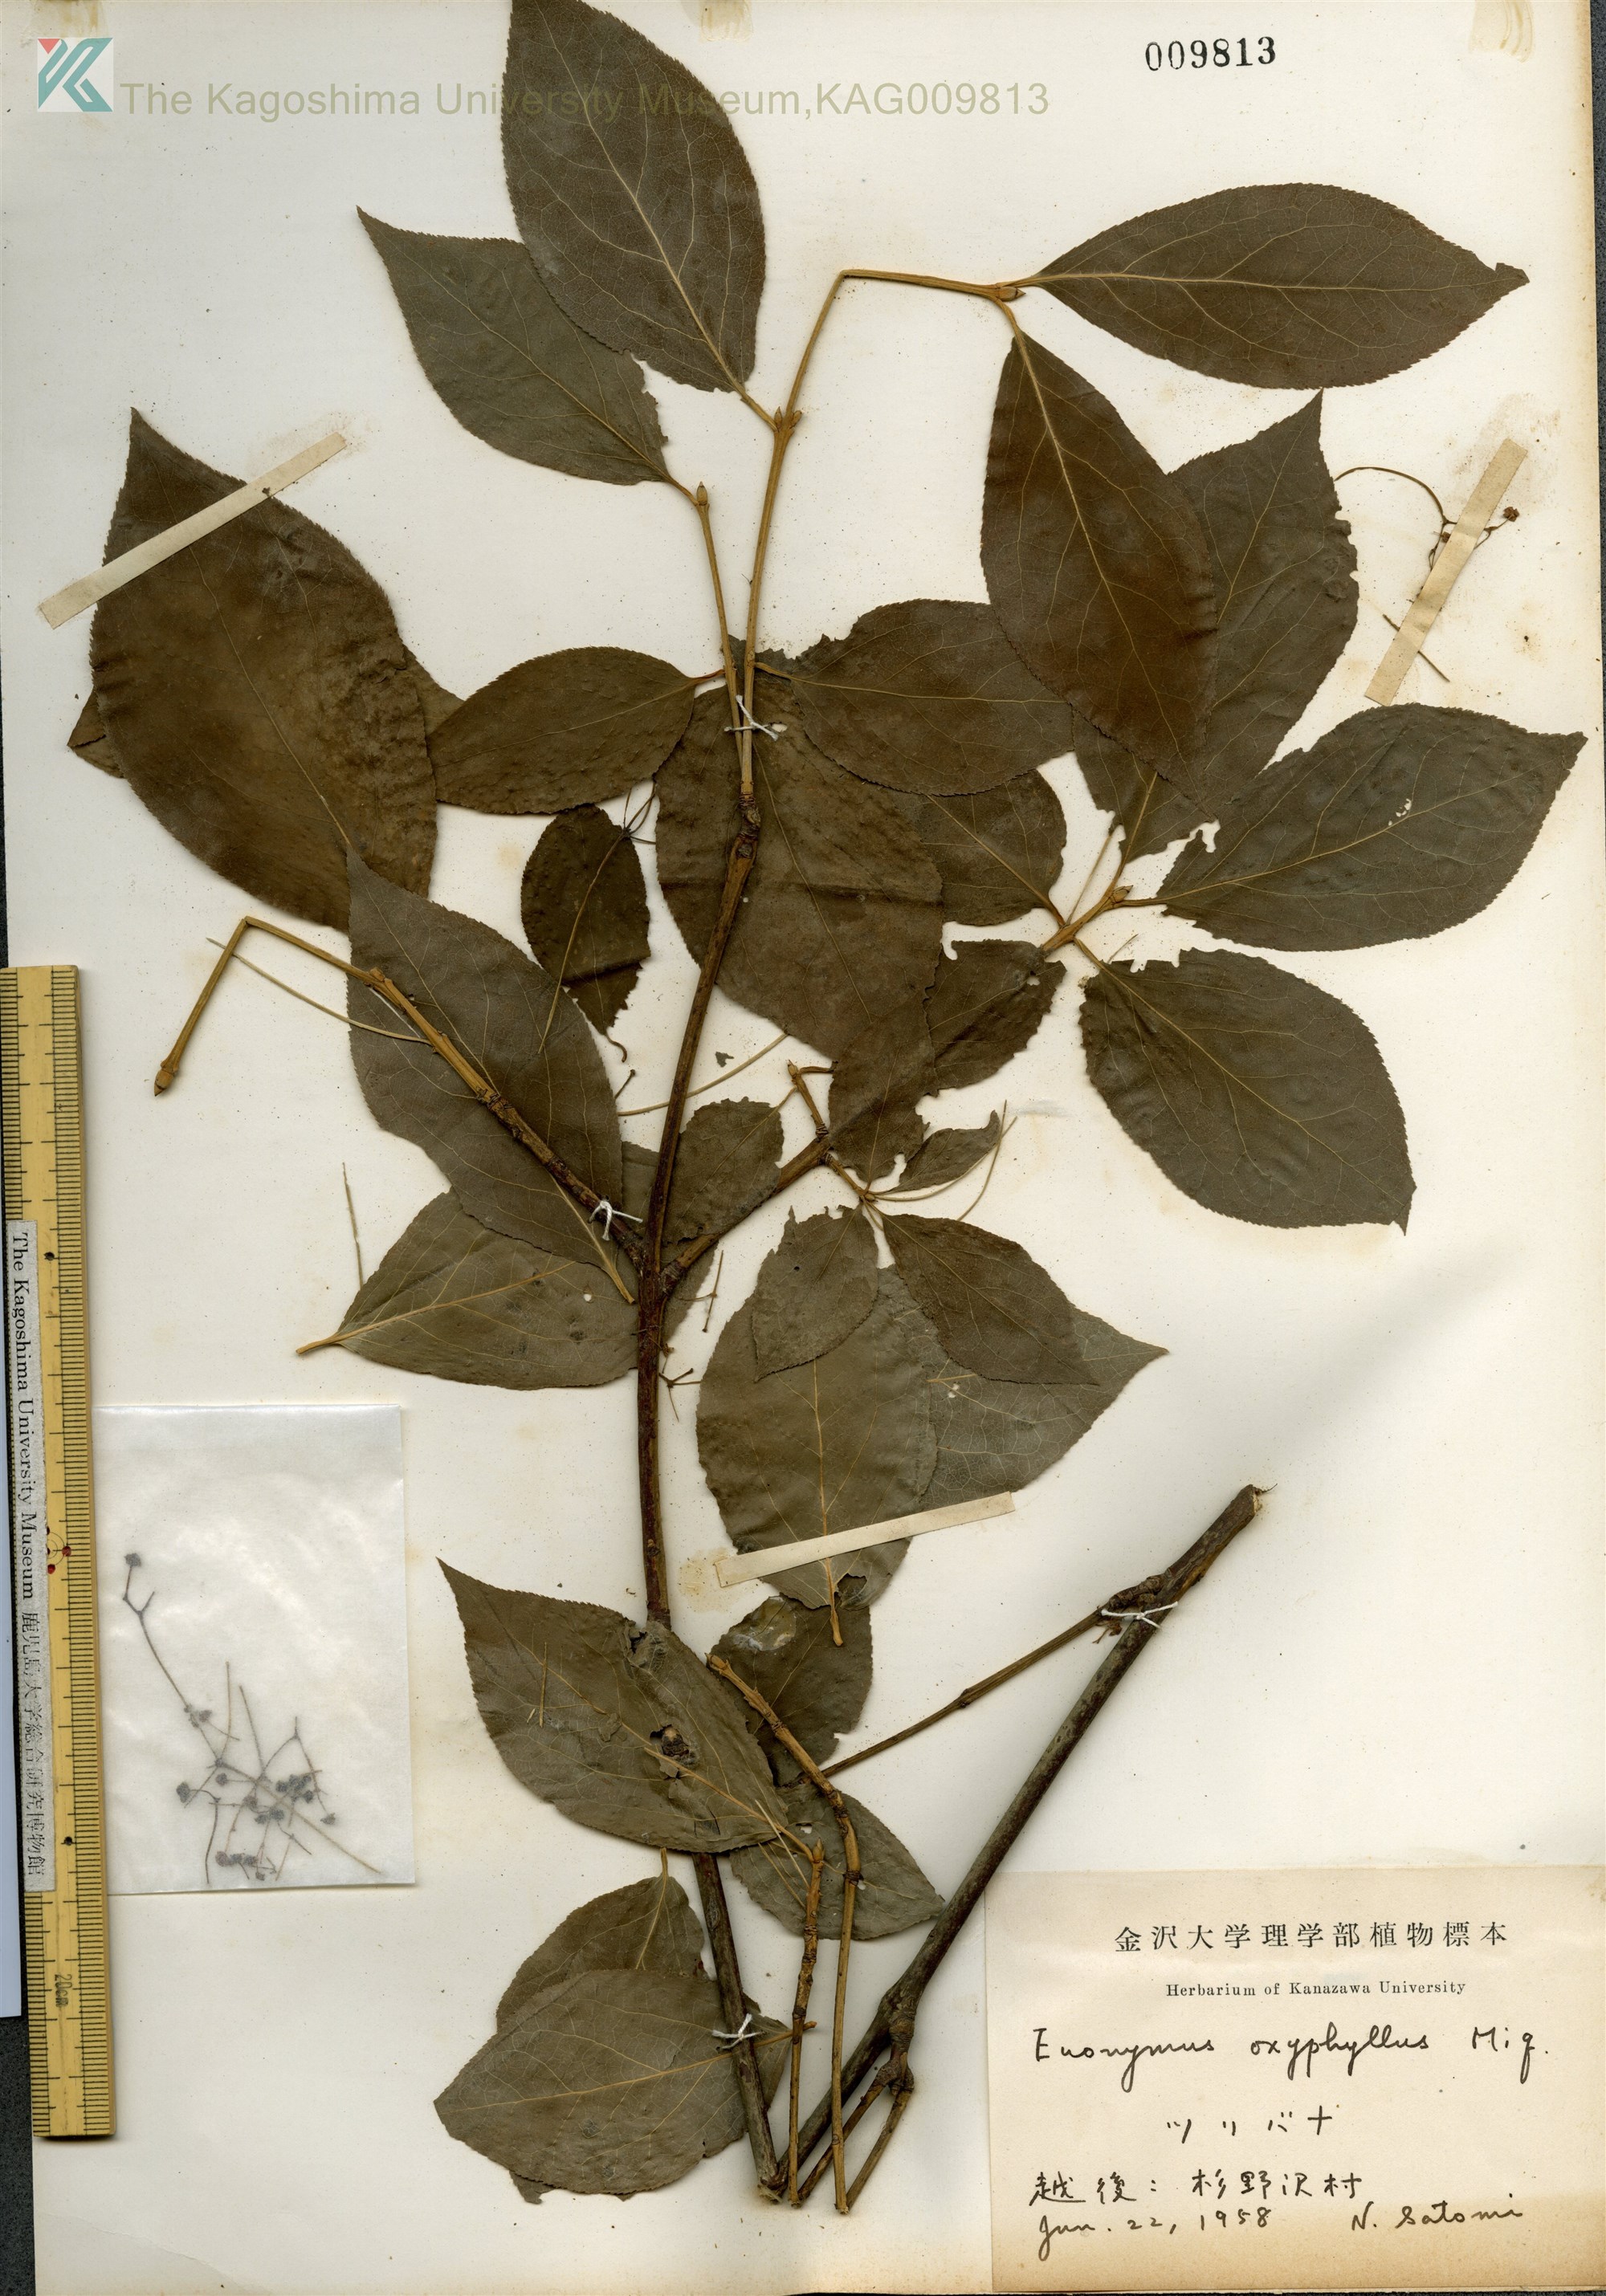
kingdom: Plantae
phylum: Tracheophyta
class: Magnoliopsida
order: Celastrales
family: Celastraceae
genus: Euonymus
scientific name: Euonymus oxyphyllus
